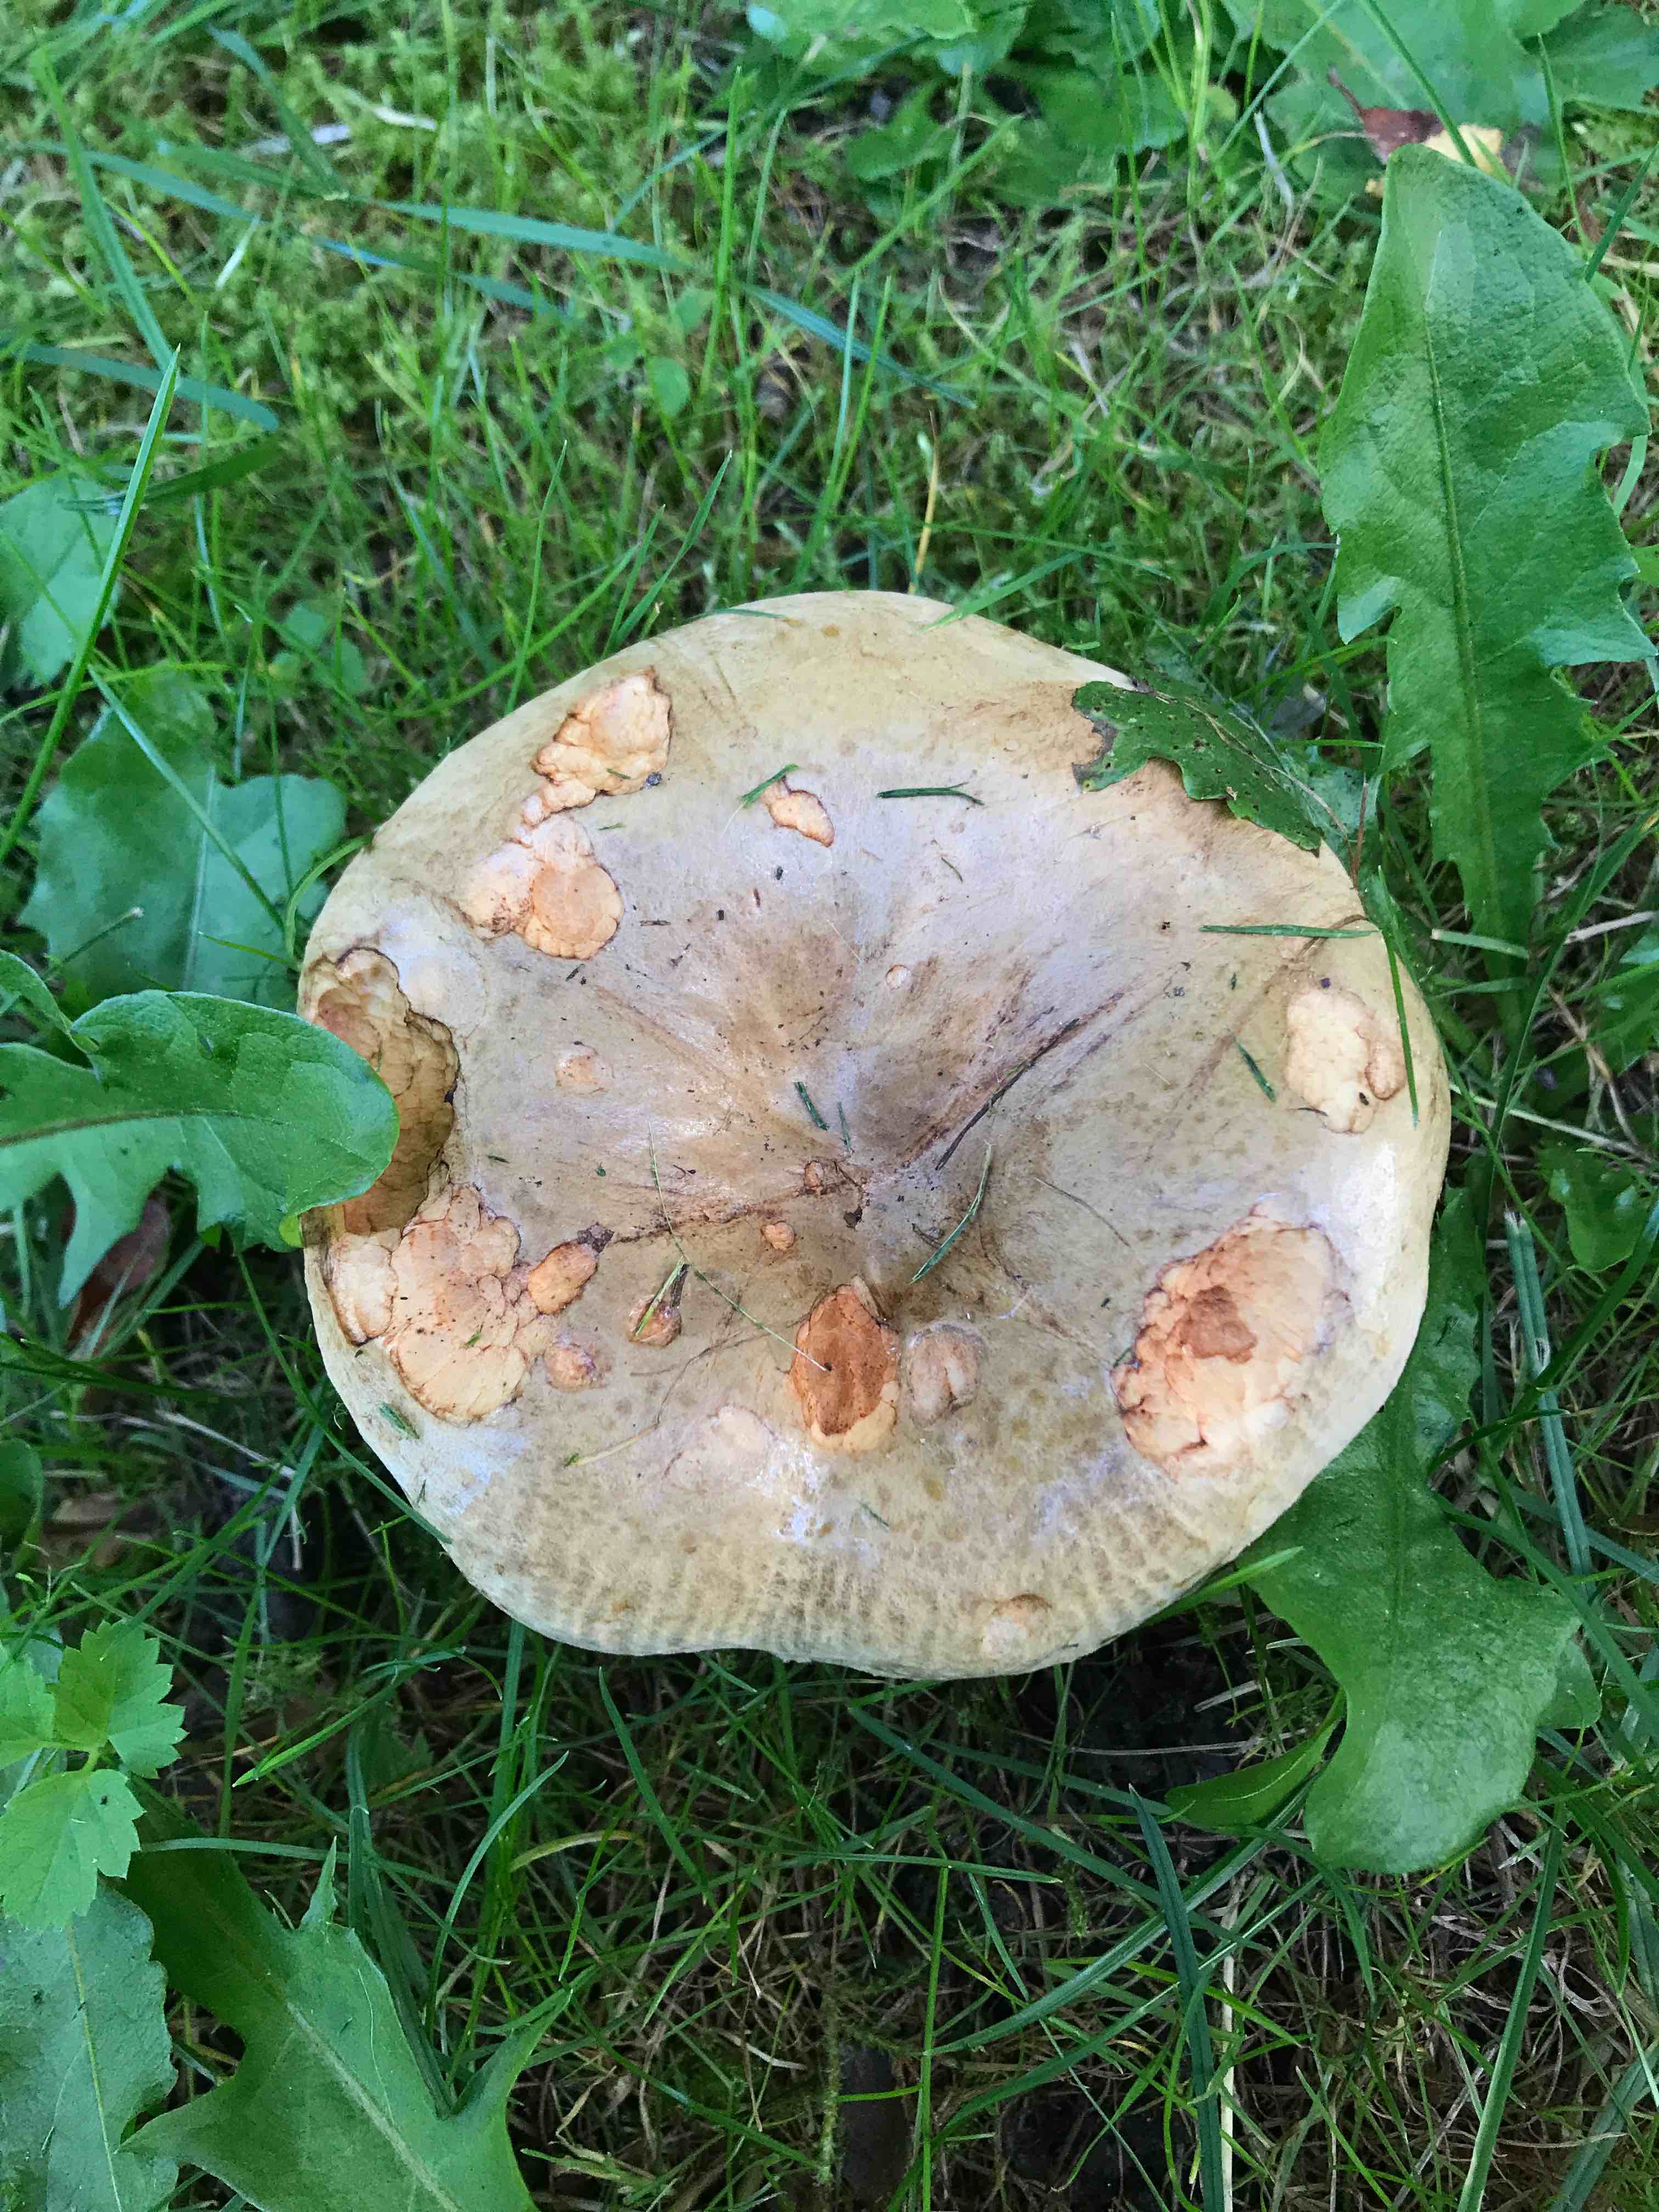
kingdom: Fungi
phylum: Basidiomycota
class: Agaricomycetes
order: Boletales
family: Paxillaceae
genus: Paxillus
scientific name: Paxillus
